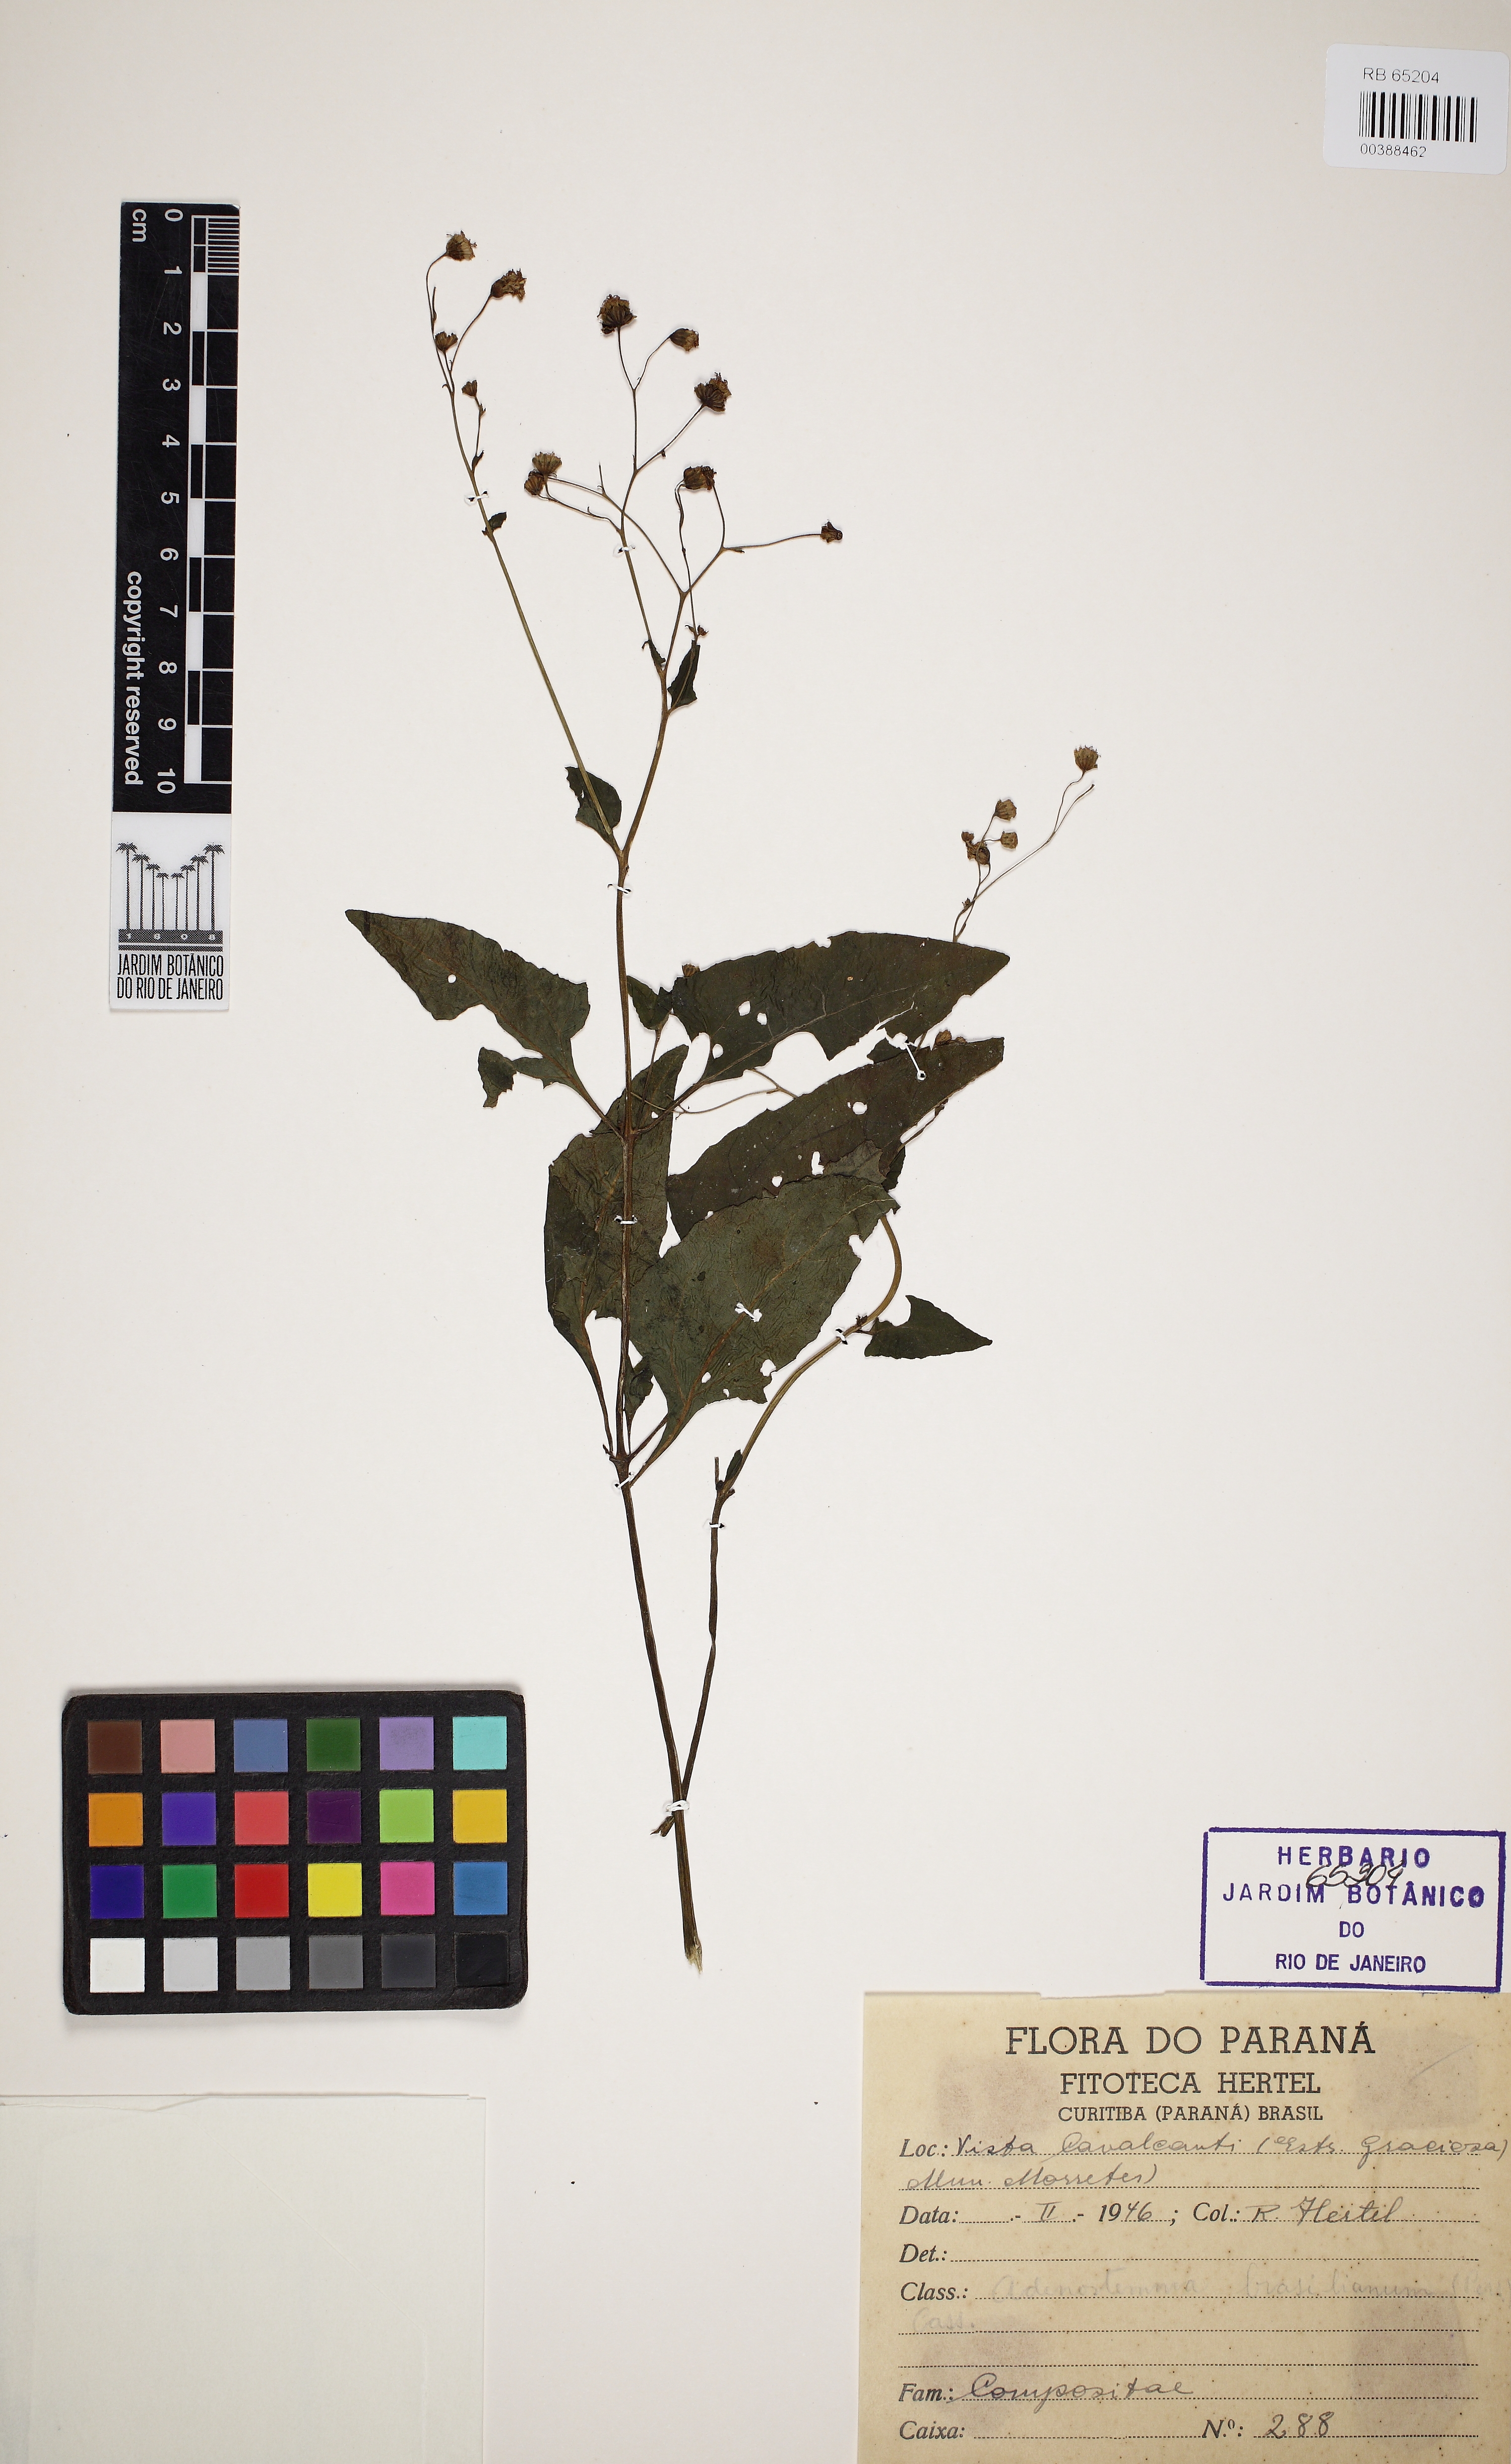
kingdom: Plantae
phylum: Tracheophyta
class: Magnoliopsida
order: Asterales
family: Asteraceae
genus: Adenostemma
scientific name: Adenostemma brasilianum
